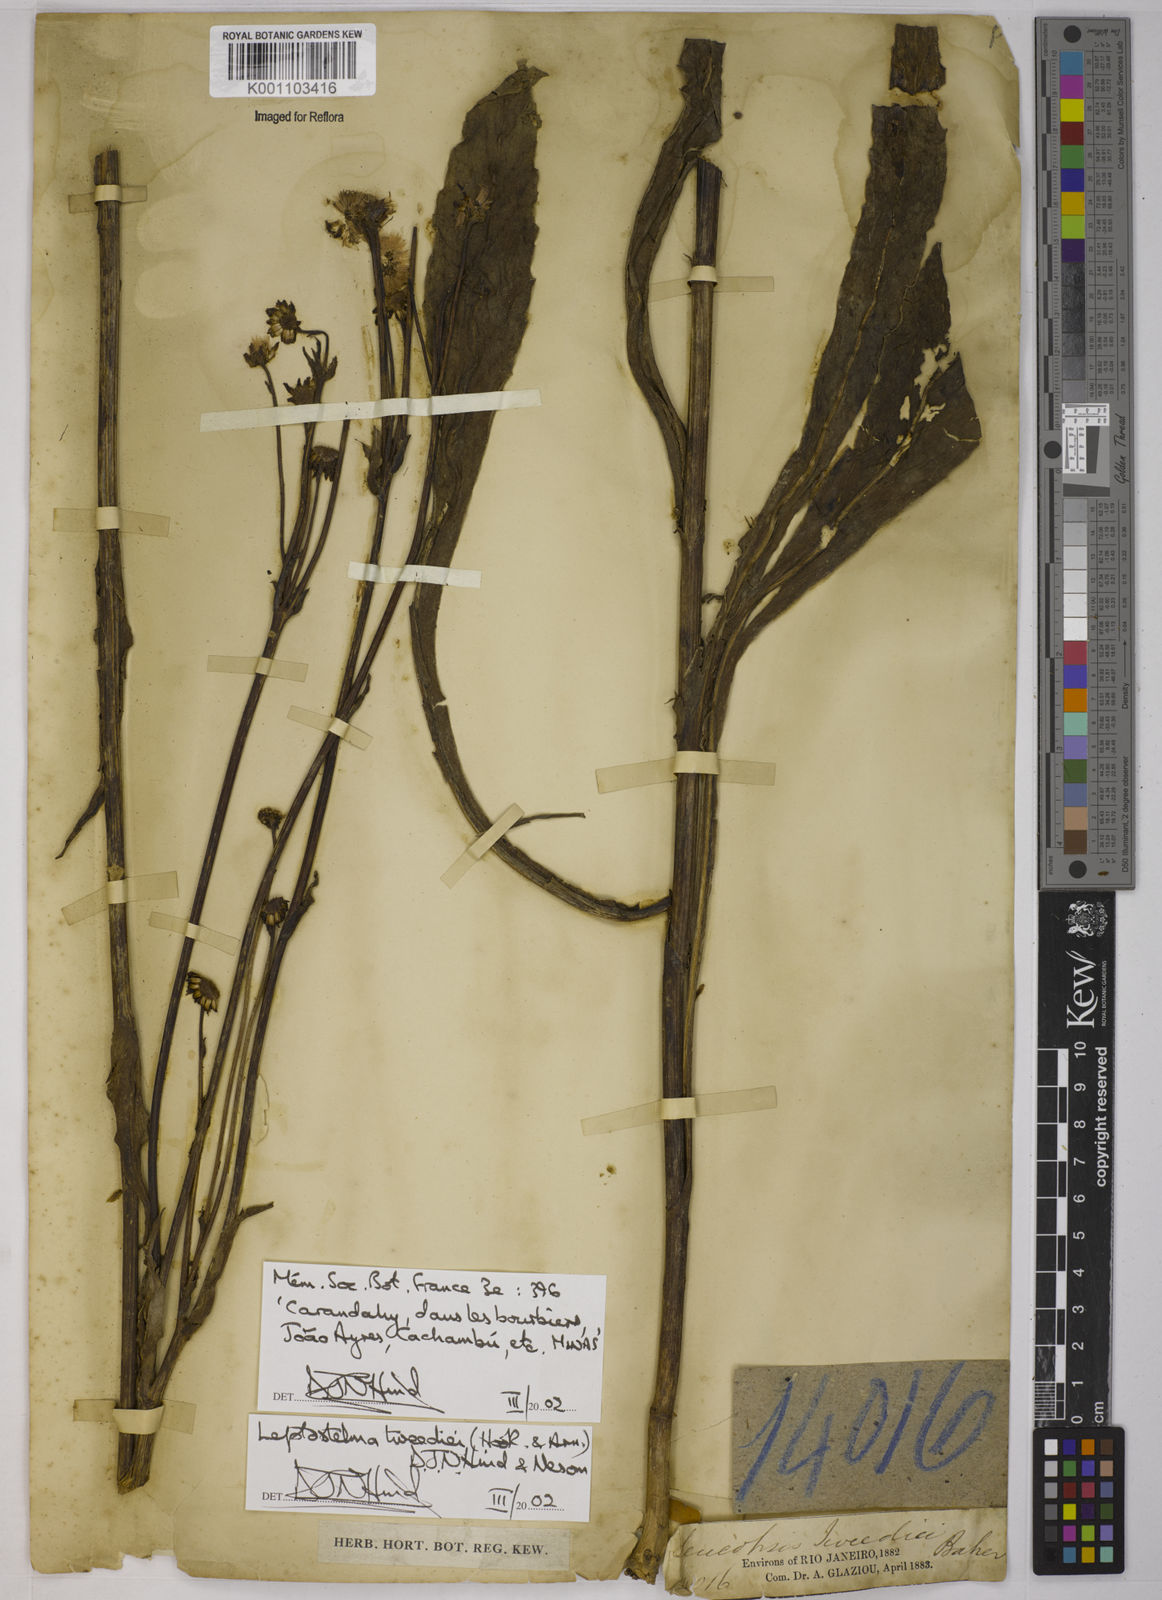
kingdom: Plantae
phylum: Tracheophyta
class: Magnoliopsida
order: Asterales
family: Asteraceae
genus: Leptostelma
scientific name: Leptostelma tweediei
